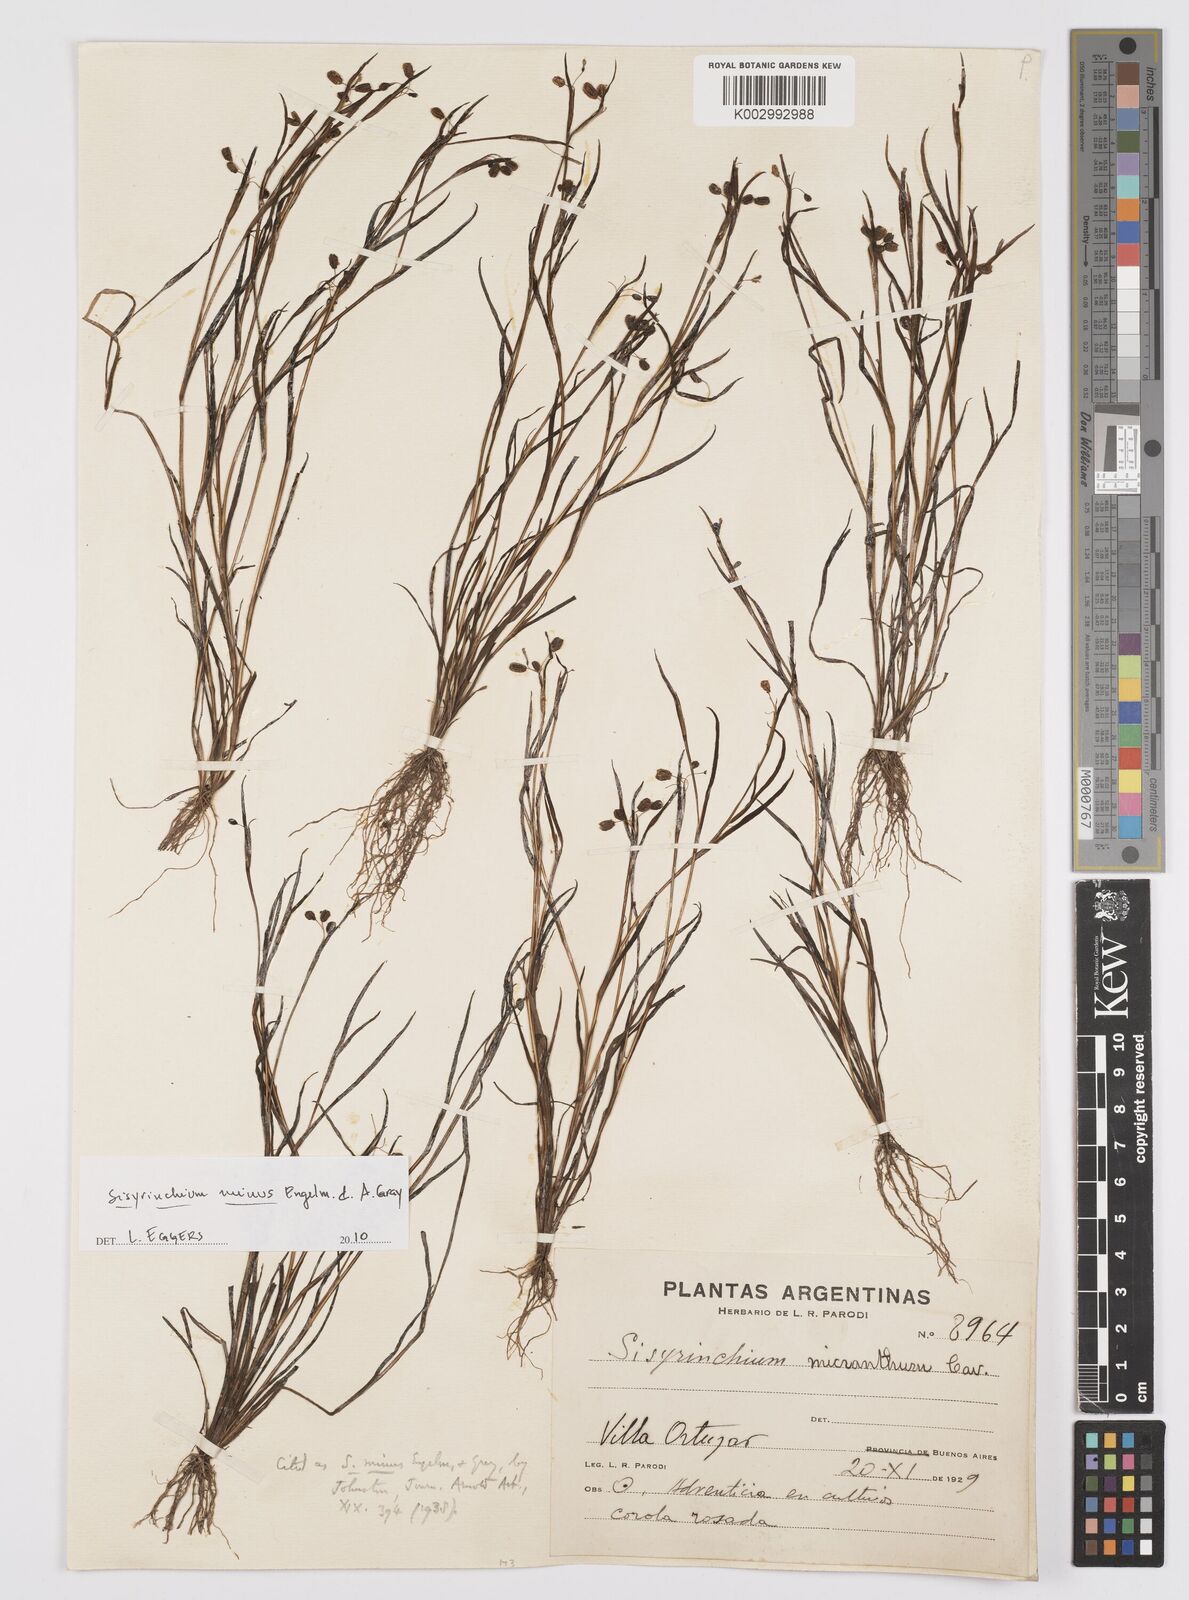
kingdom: Plantae
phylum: Tracheophyta
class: Liliopsida
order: Asparagales
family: Iridaceae
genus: Sisyrinchium
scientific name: Sisyrinchium minus
